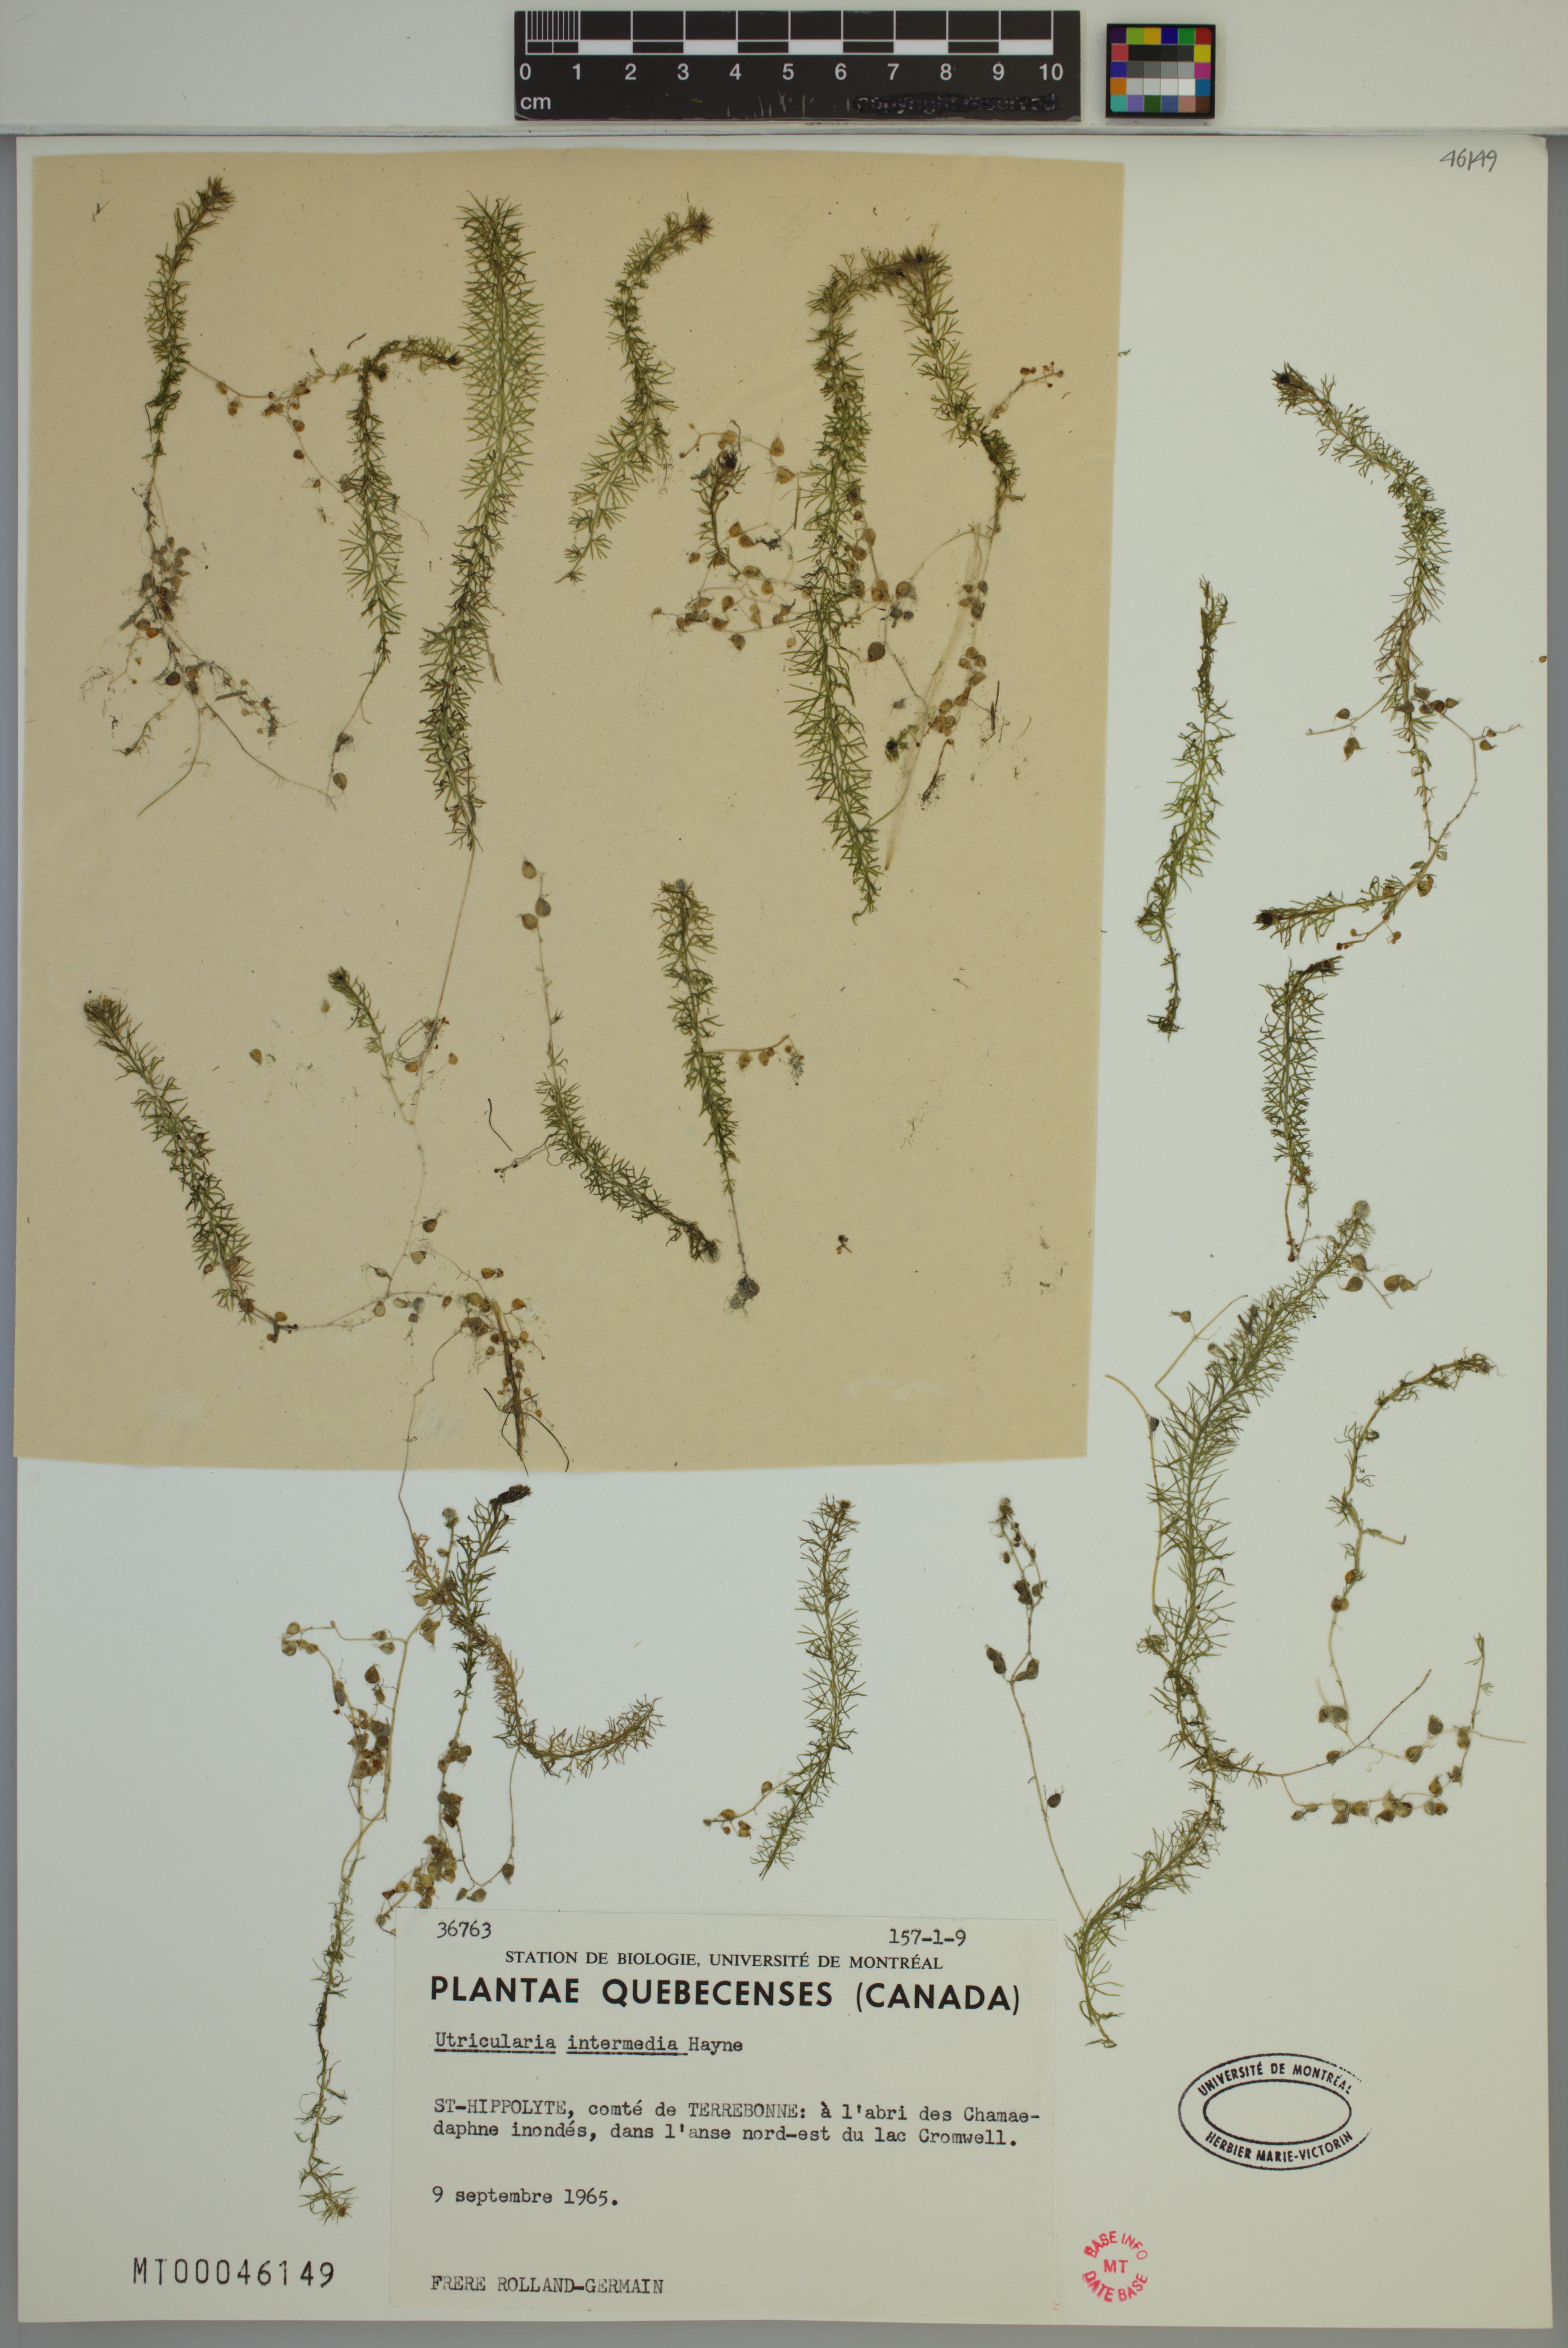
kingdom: Plantae
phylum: Tracheophyta
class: Magnoliopsida
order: Lamiales
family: Lentibulariaceae
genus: Utricularia
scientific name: Utricularia intermedia
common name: Intermediate bladderwort
